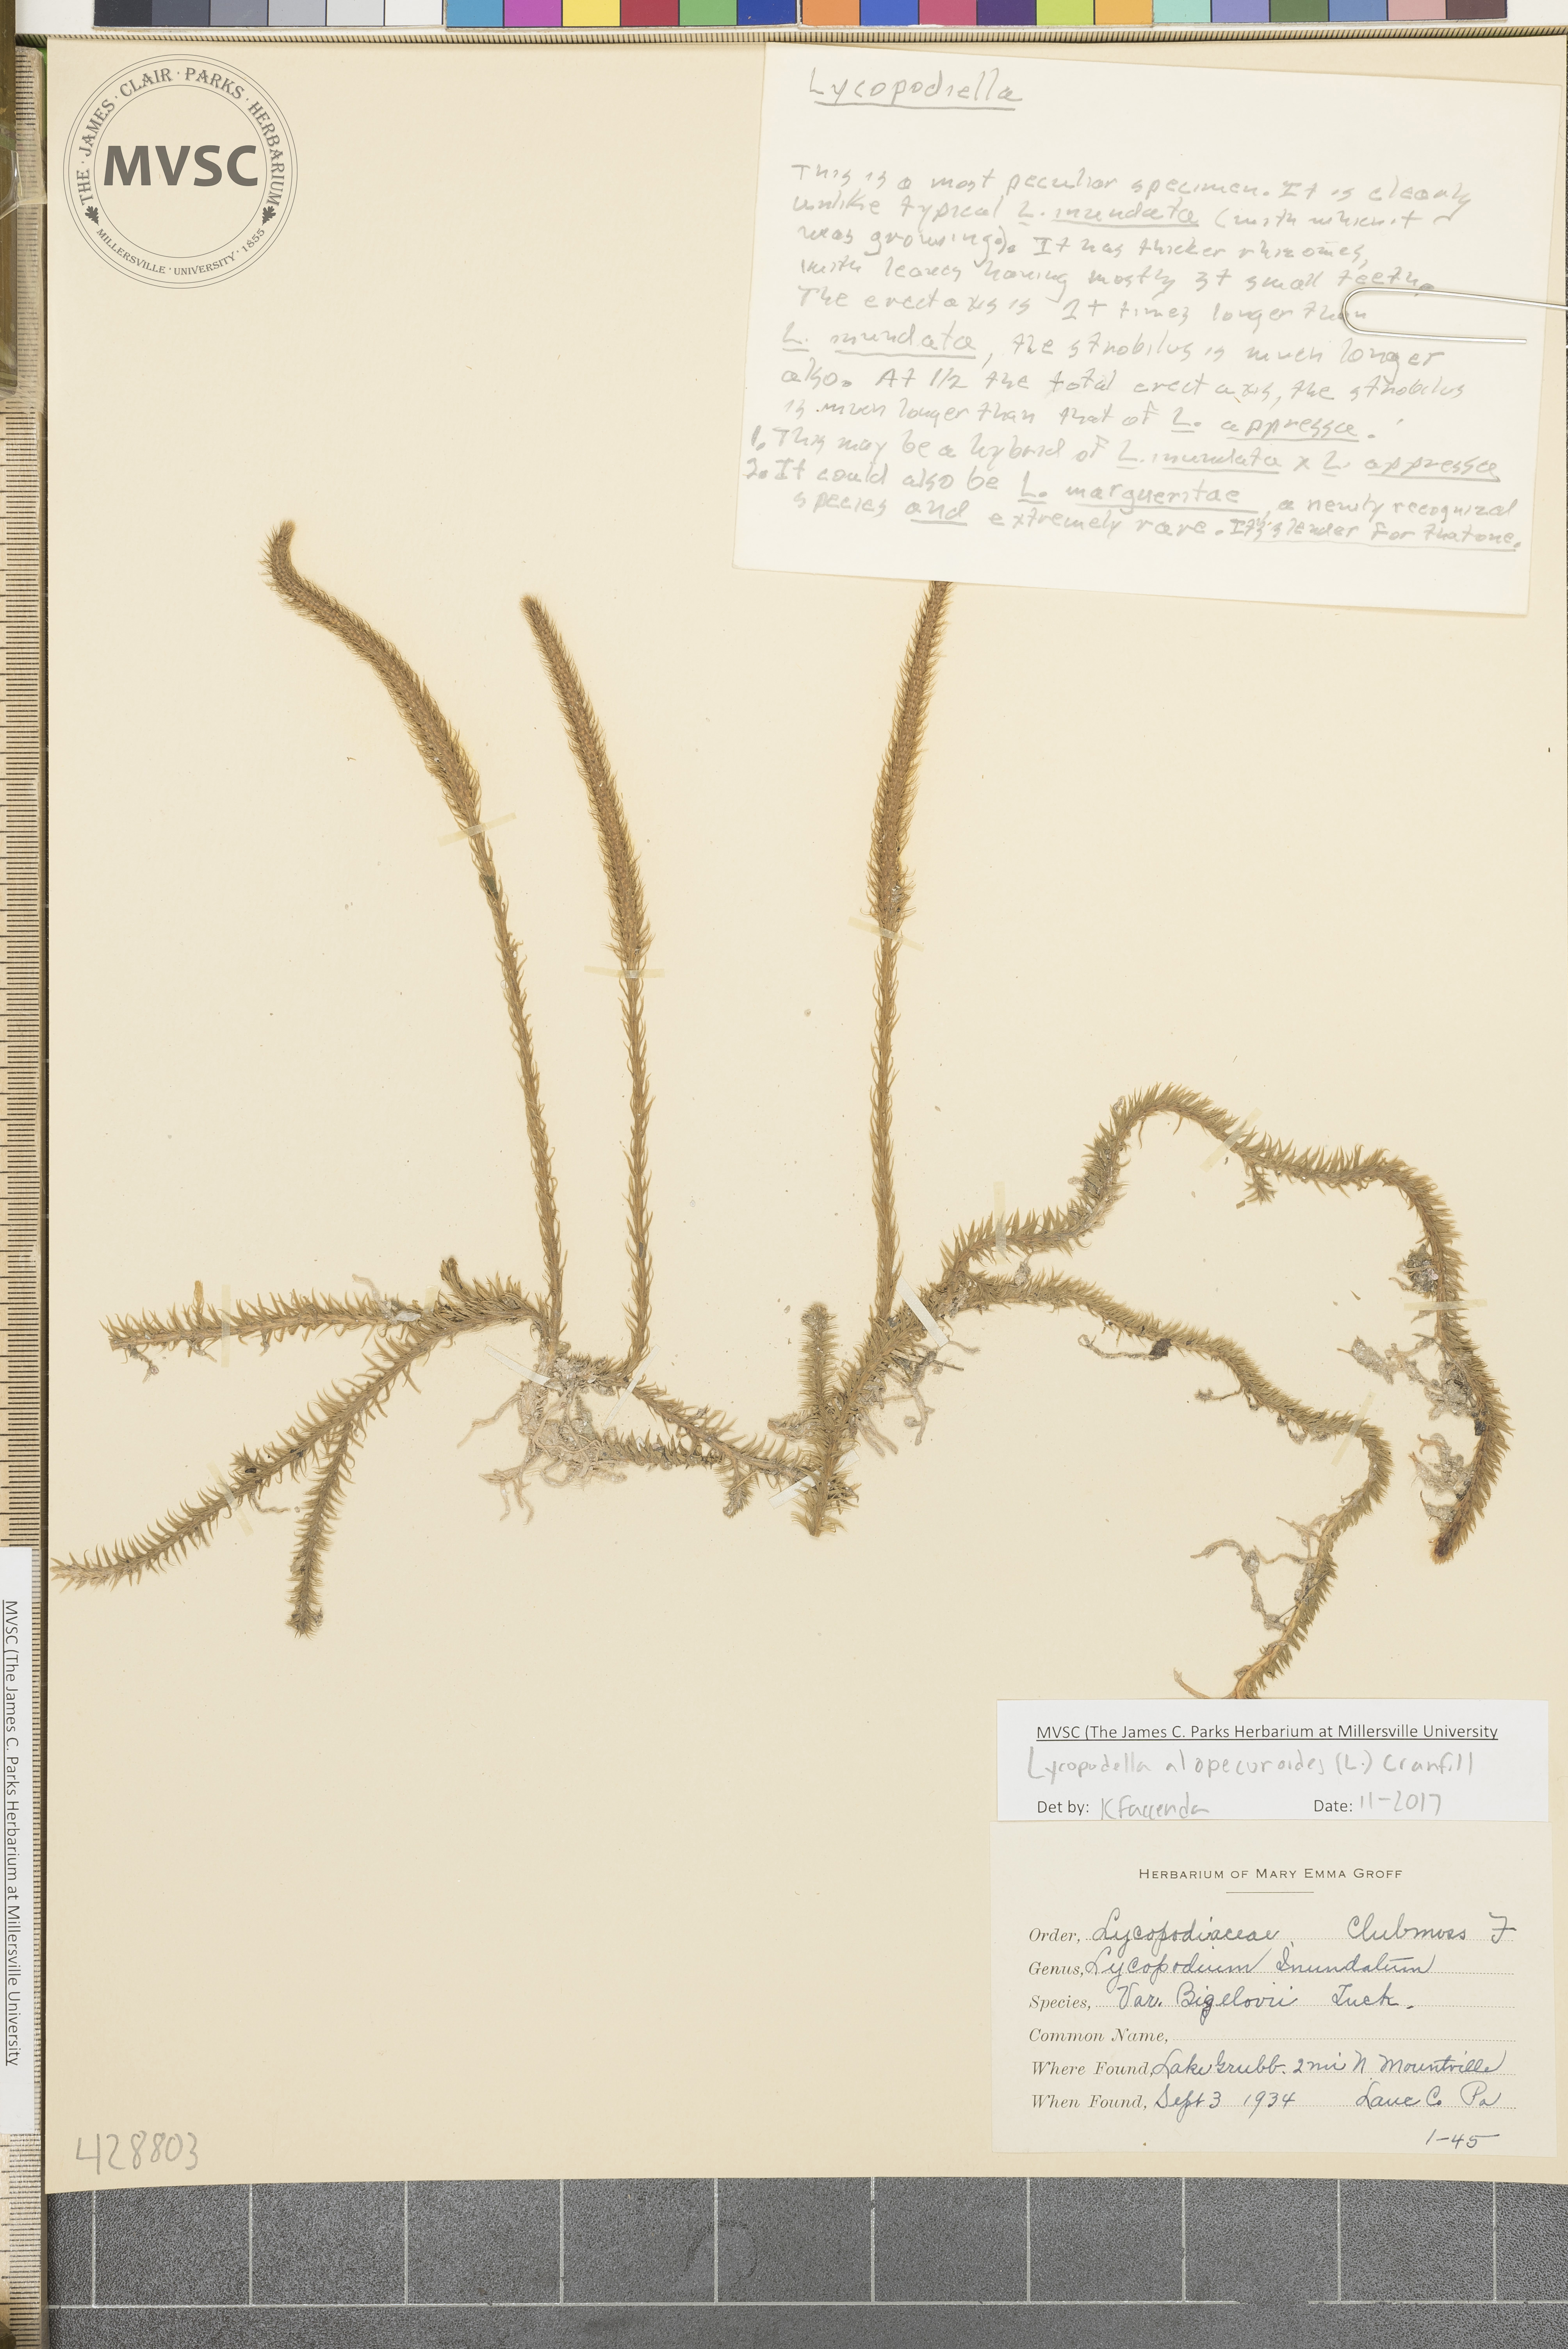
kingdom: Plantae
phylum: Tracheophyta
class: Lycopodiopsida
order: Lycopodiales
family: Lycopodiaceae
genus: Lycopodiella
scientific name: Lycopodiella appressa
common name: Appressed bog clubmoss
